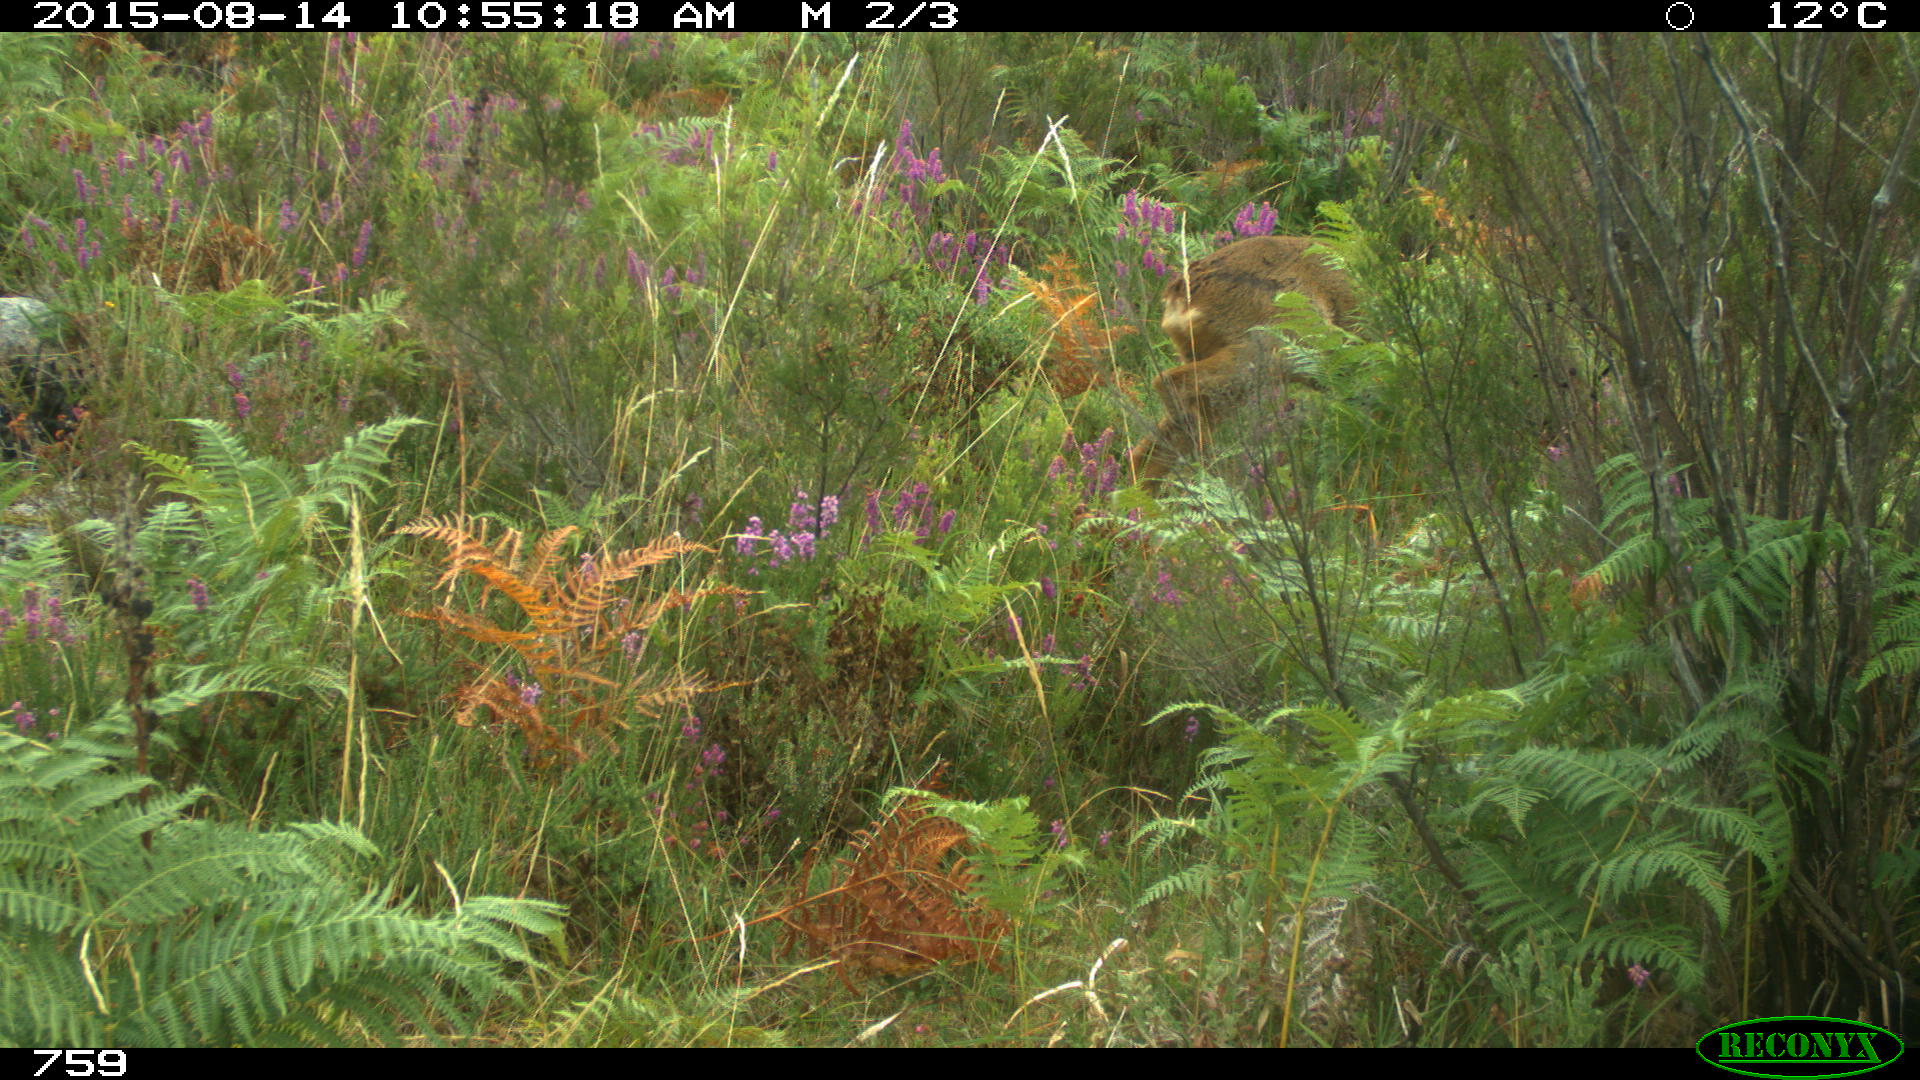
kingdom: Animalia
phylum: Chordata
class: Mammalia
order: Artiodactyla
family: Cervidae
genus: Capreolus
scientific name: Capreolus capreolus
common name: Western roe deer
